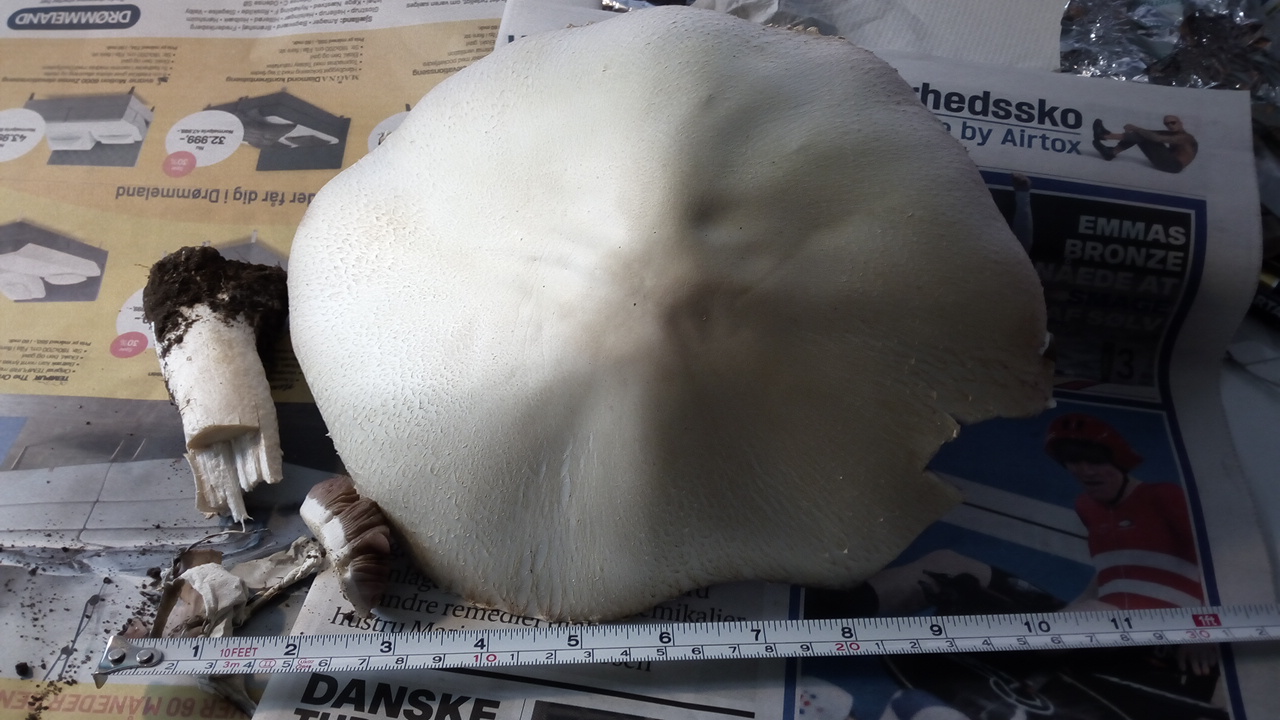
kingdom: Fungi
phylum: Basidiomycota
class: Agaricomycetes
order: Agaricales
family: Agaricaceae
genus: Agaricus
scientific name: Agaricus
